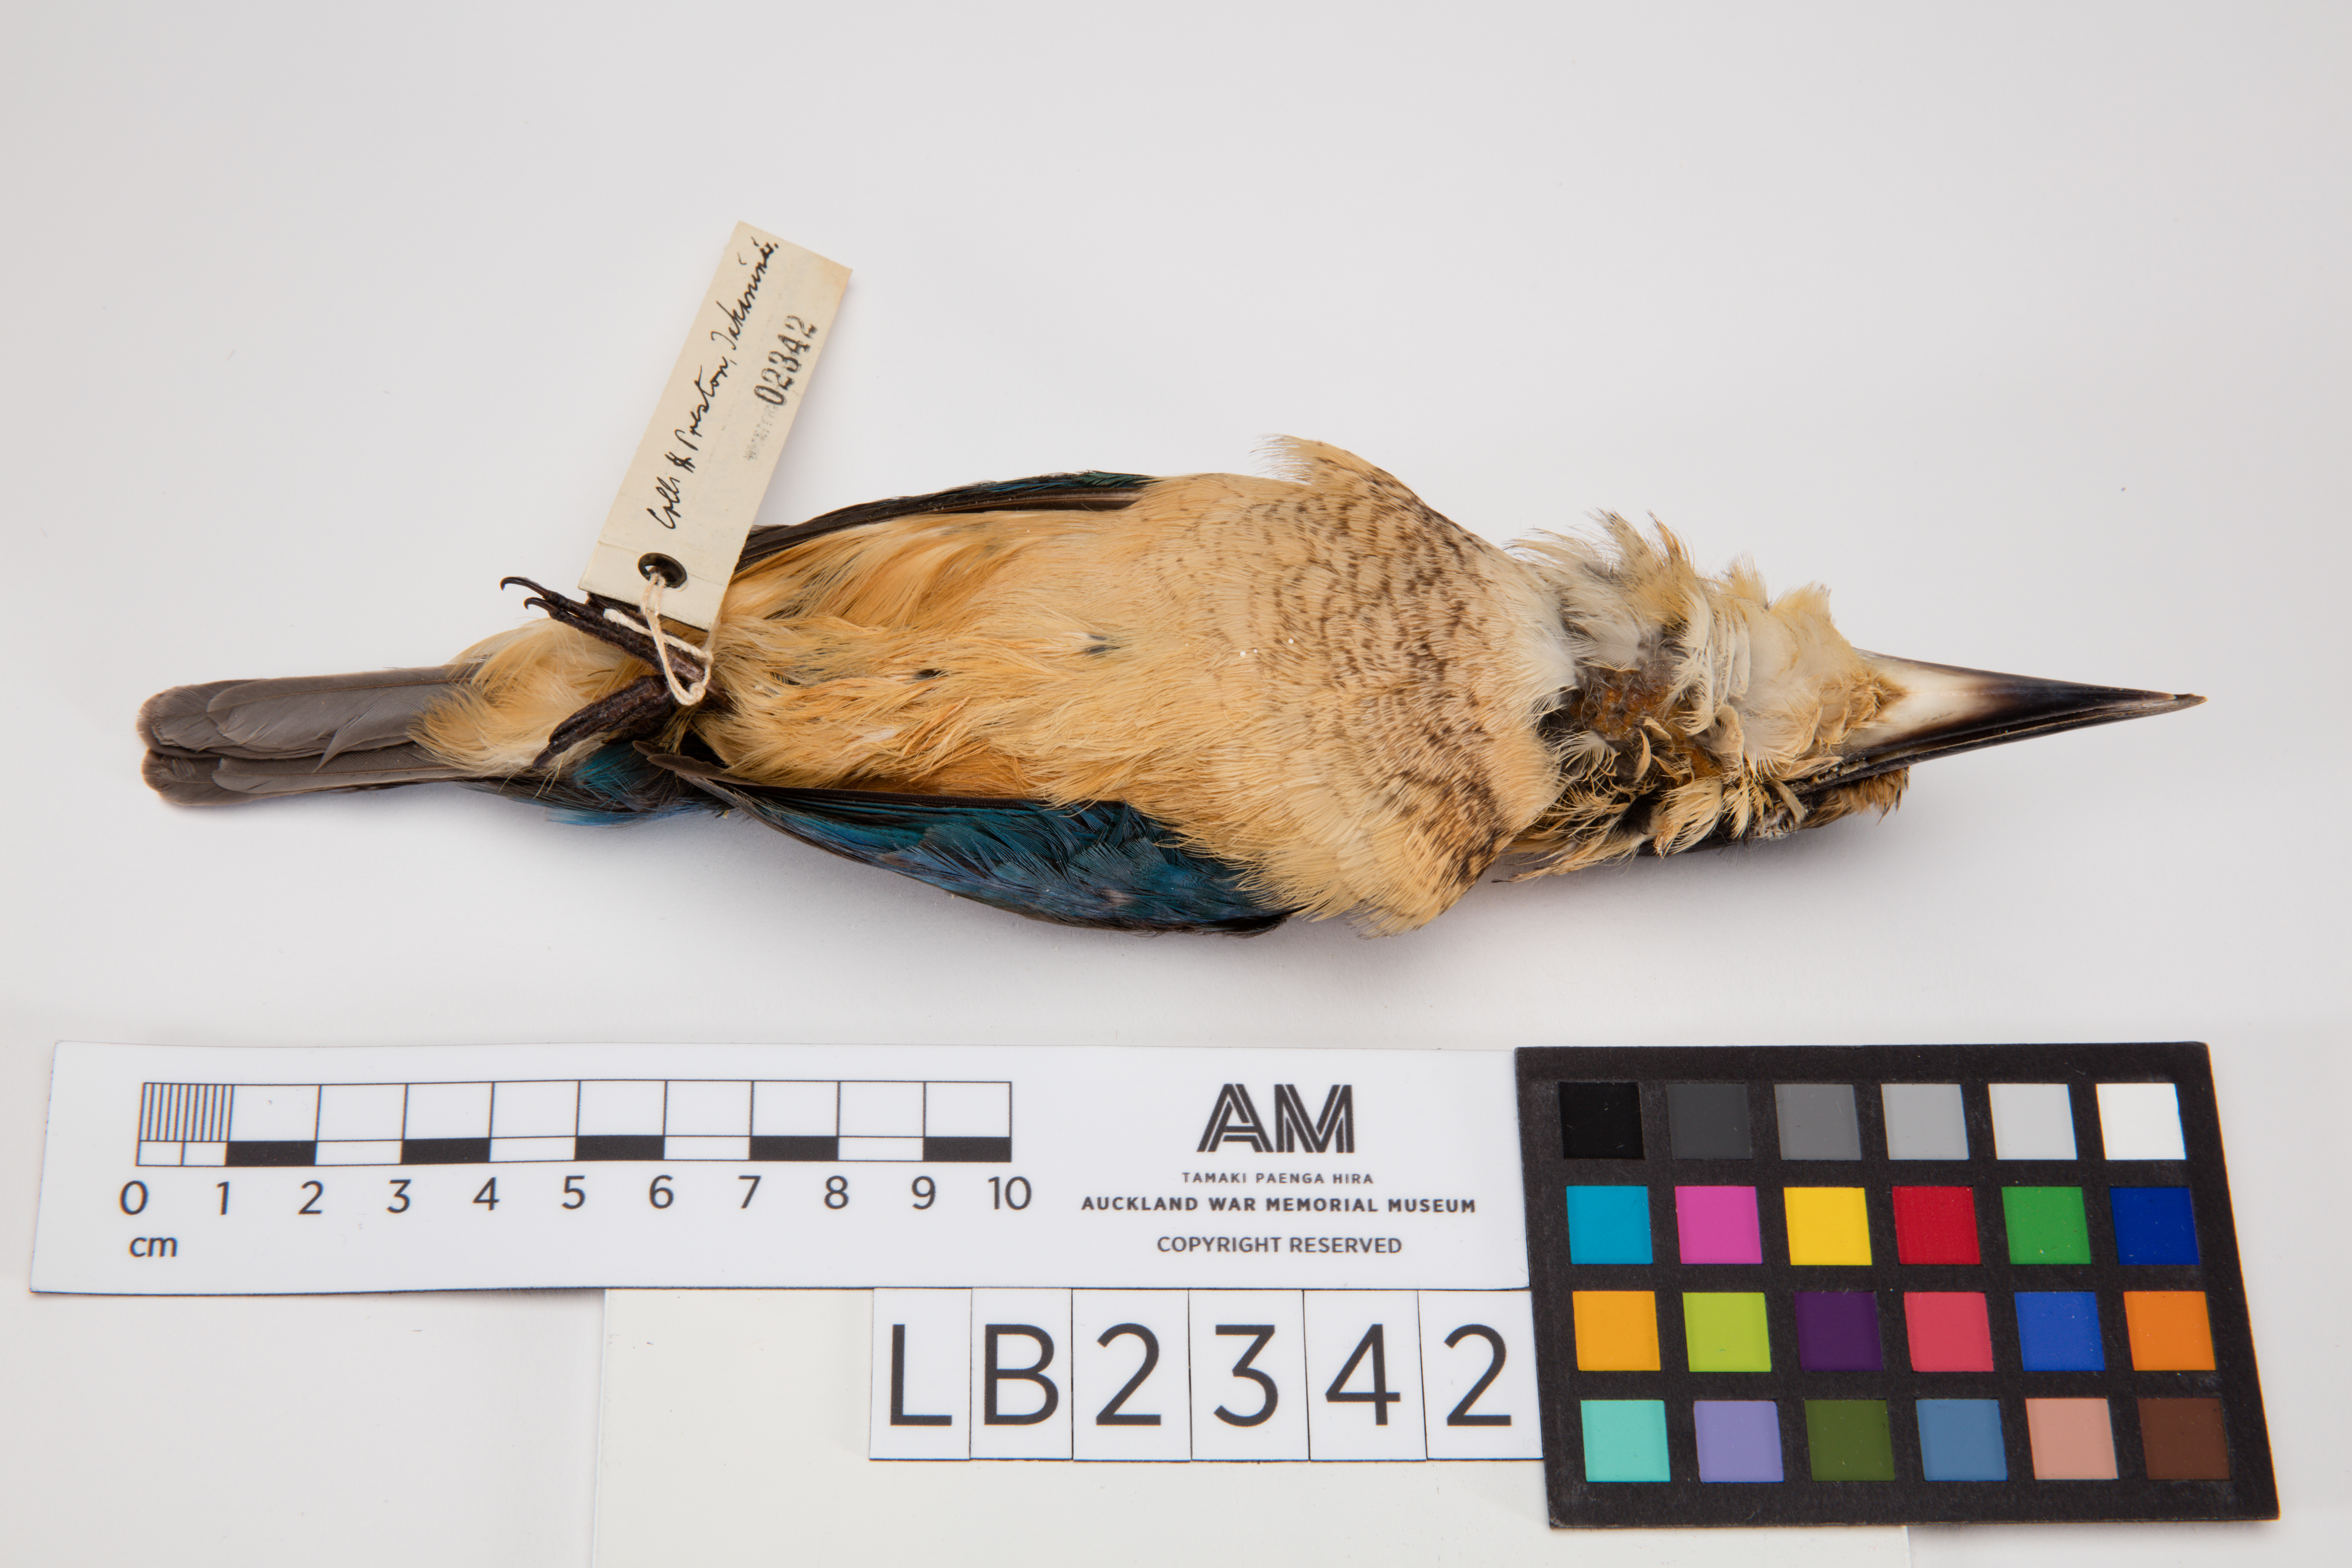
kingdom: Animalia
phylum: Chordata
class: Aves
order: Coraciiformes
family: Alcedinidae
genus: Todiramphus
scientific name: Todiramphus sanctus
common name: Sacred kingfisher
